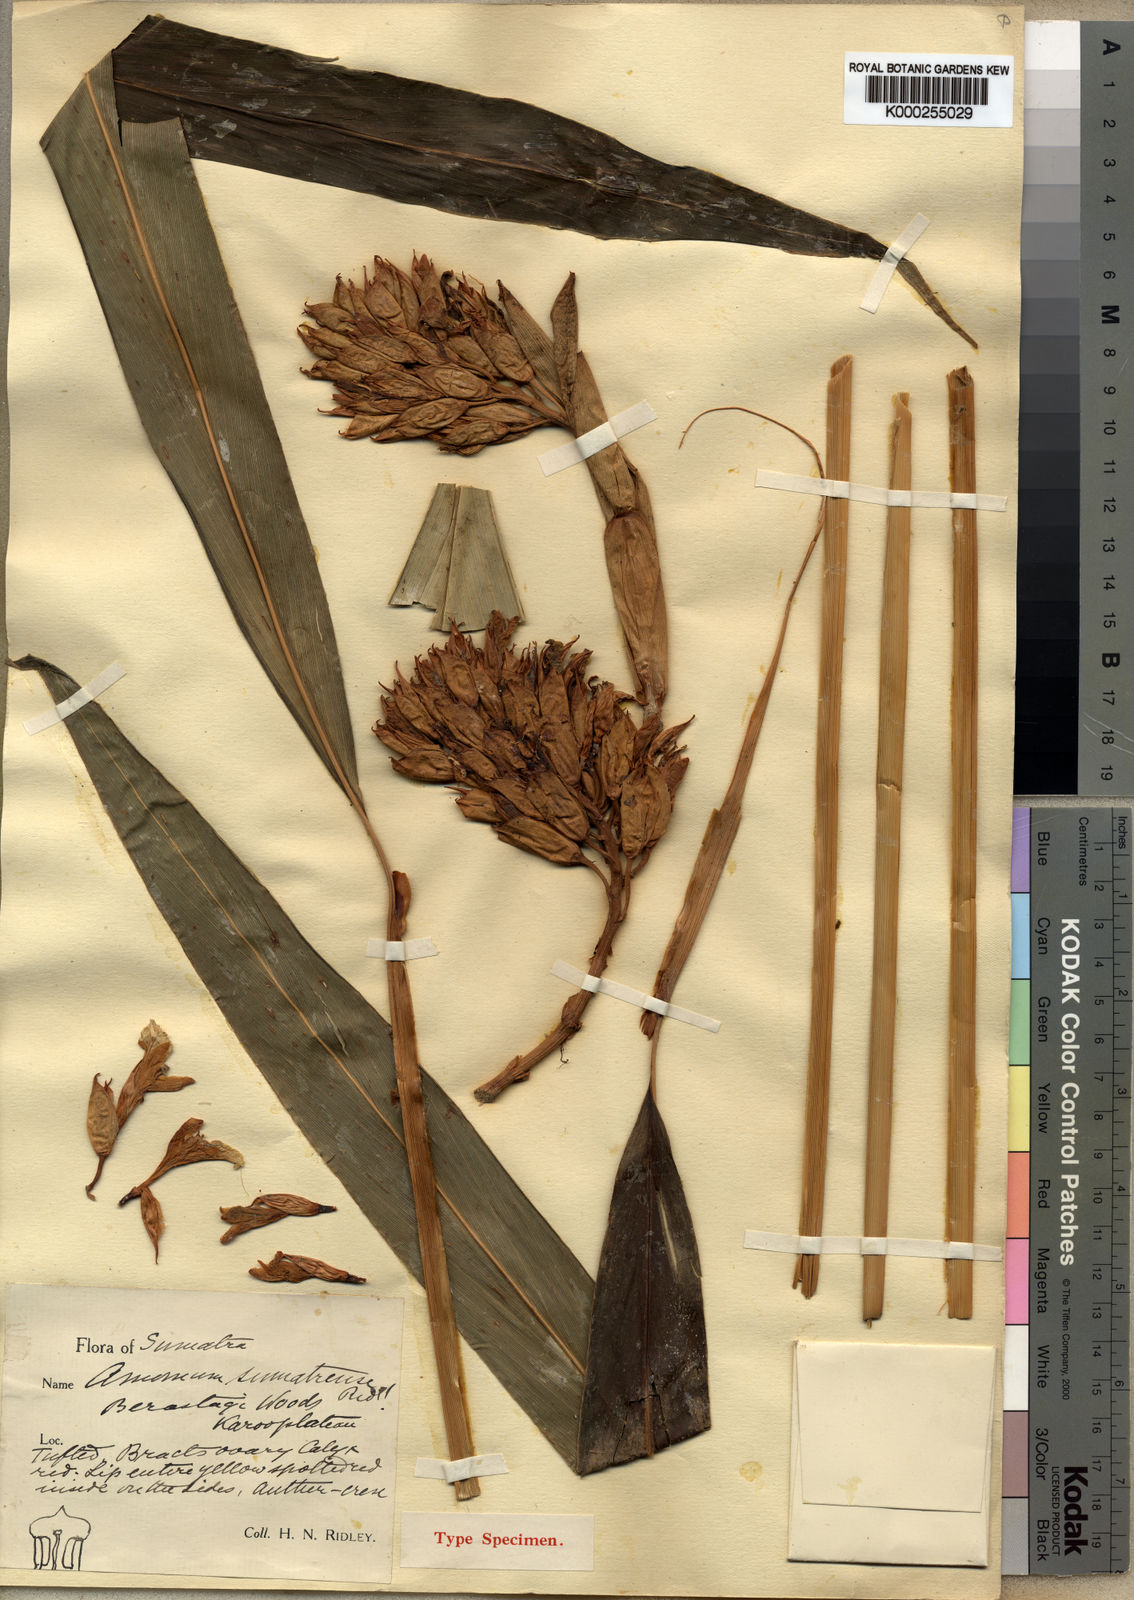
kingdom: Plantae
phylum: Tracheophyta
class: Liliopsida
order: Zingiberales
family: Zingiberaceae
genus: Geostachys
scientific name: Geostachys sumatrana
